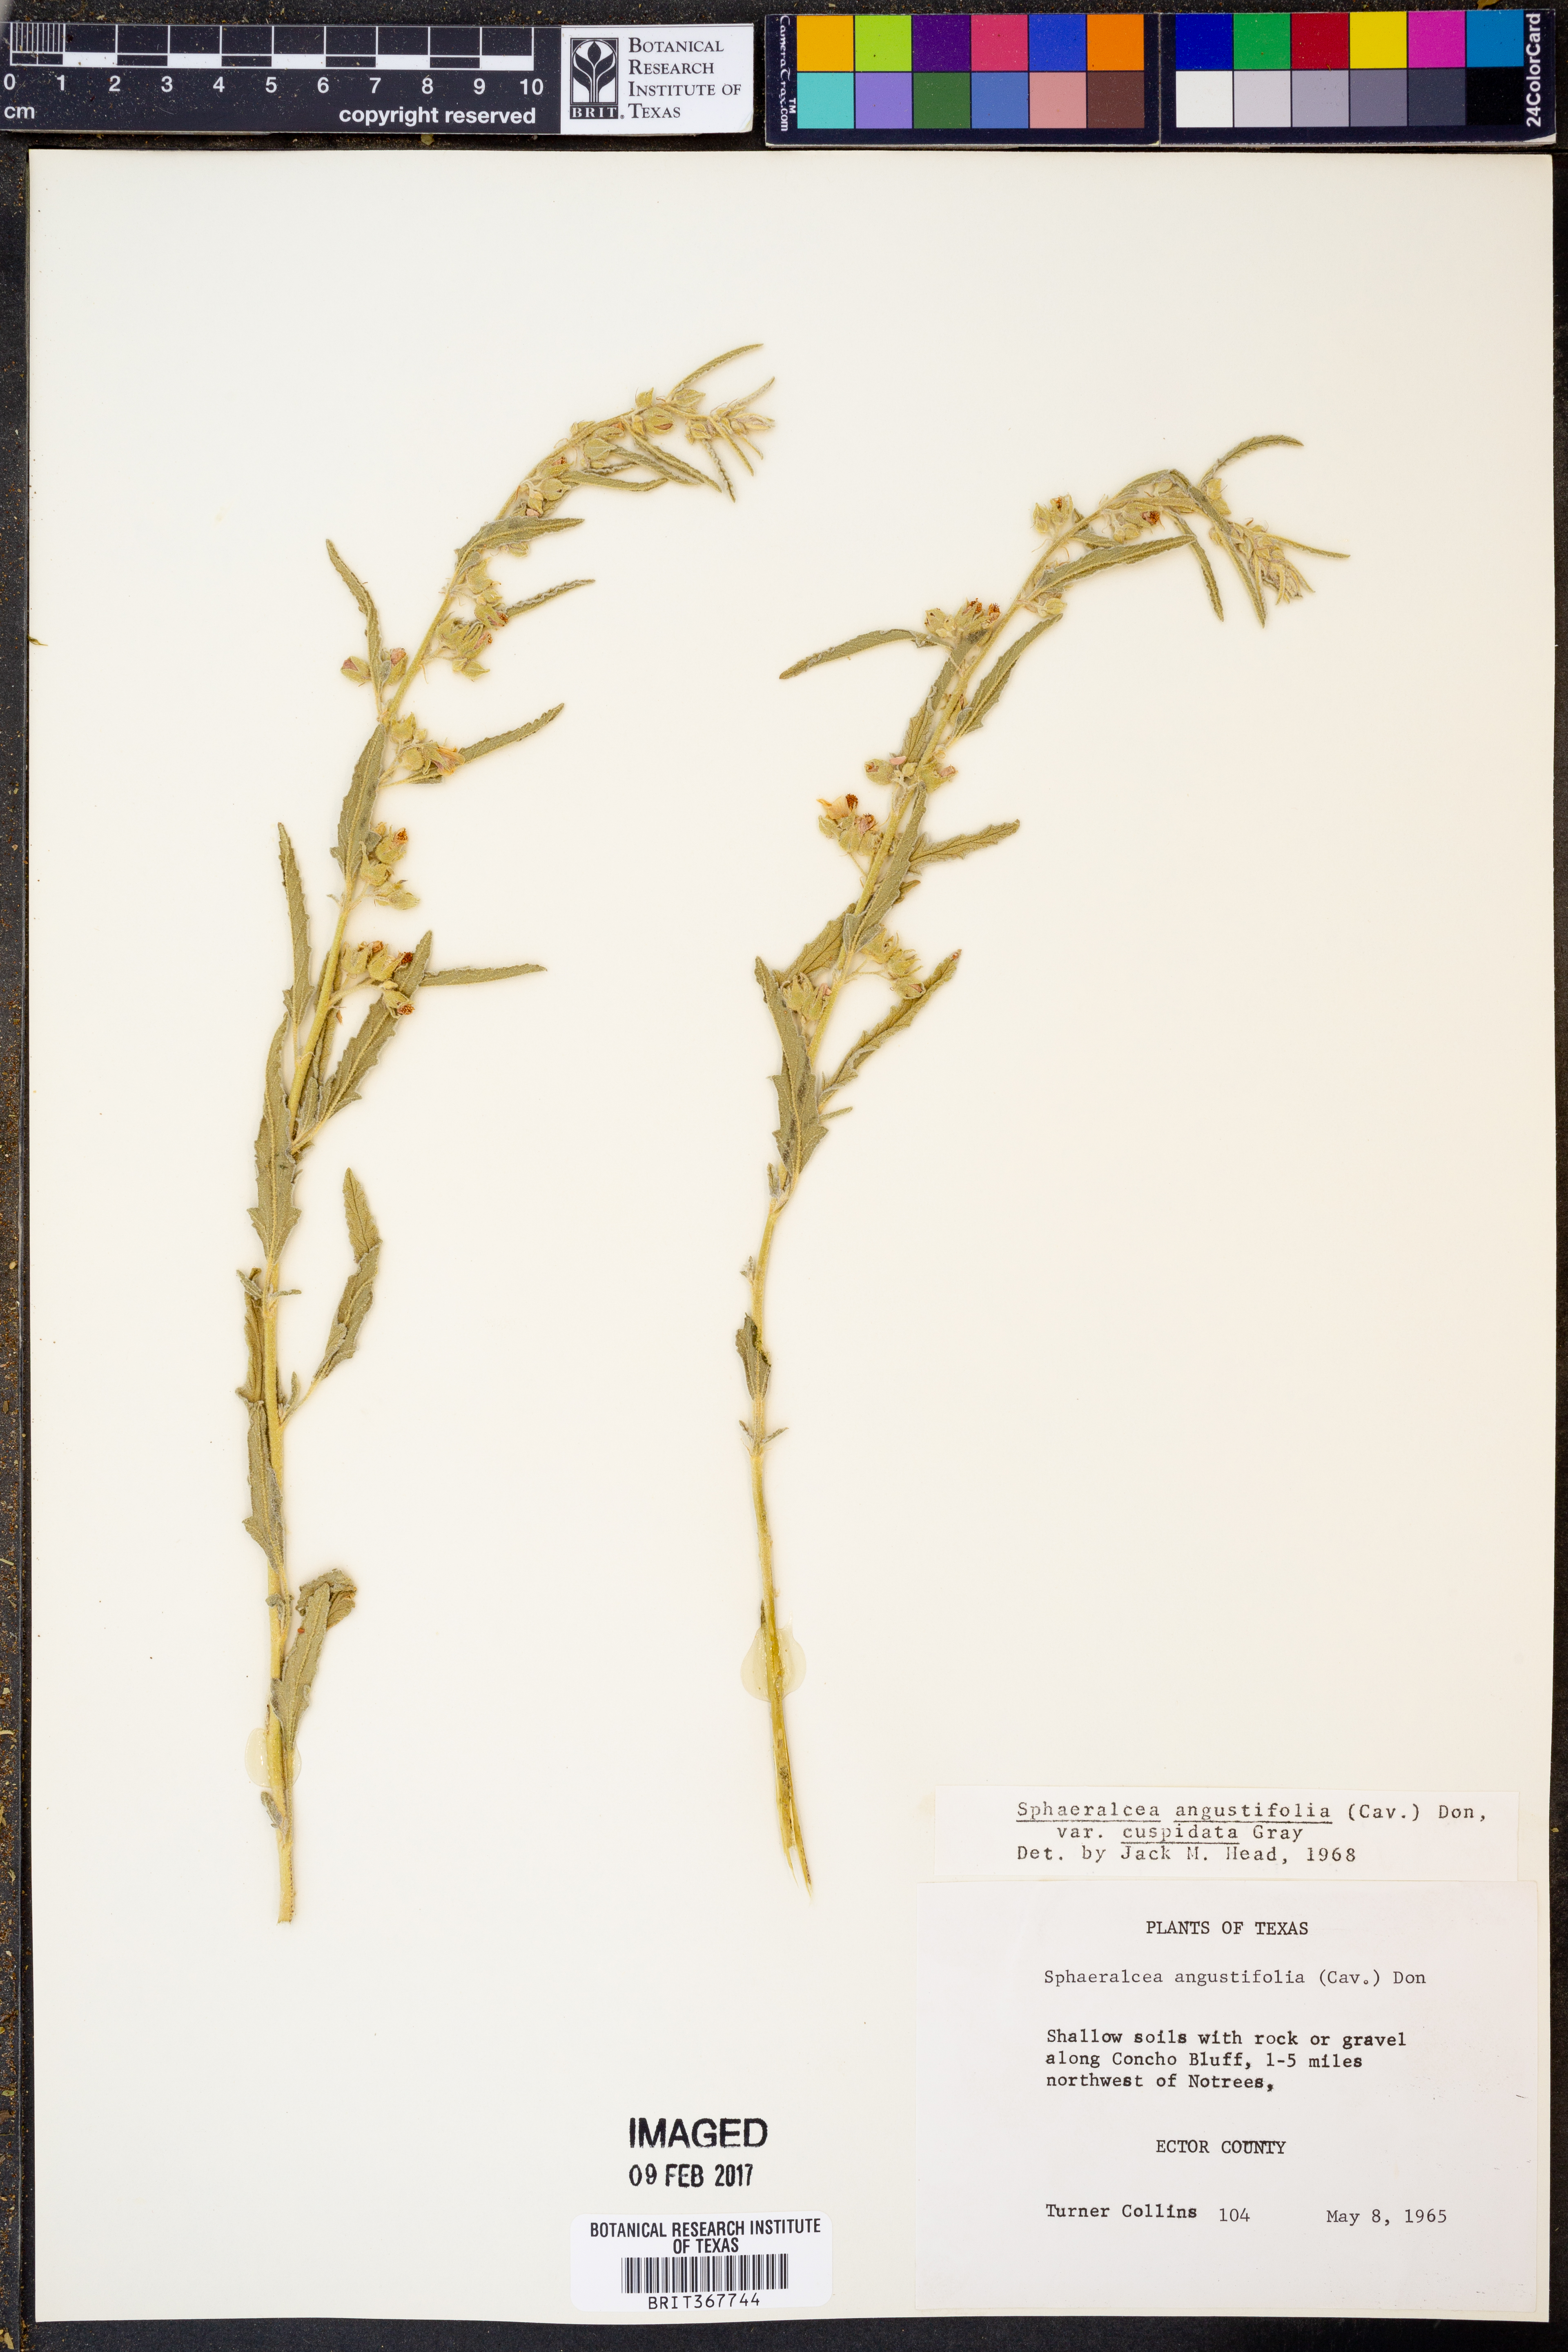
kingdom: Plantae
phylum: Tracheophyta
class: Magnoliopsida
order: Malvales
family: Malvaceae
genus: Sphaeralcea
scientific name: Sphaeralcea angustifolia
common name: Copper globe-mallow
